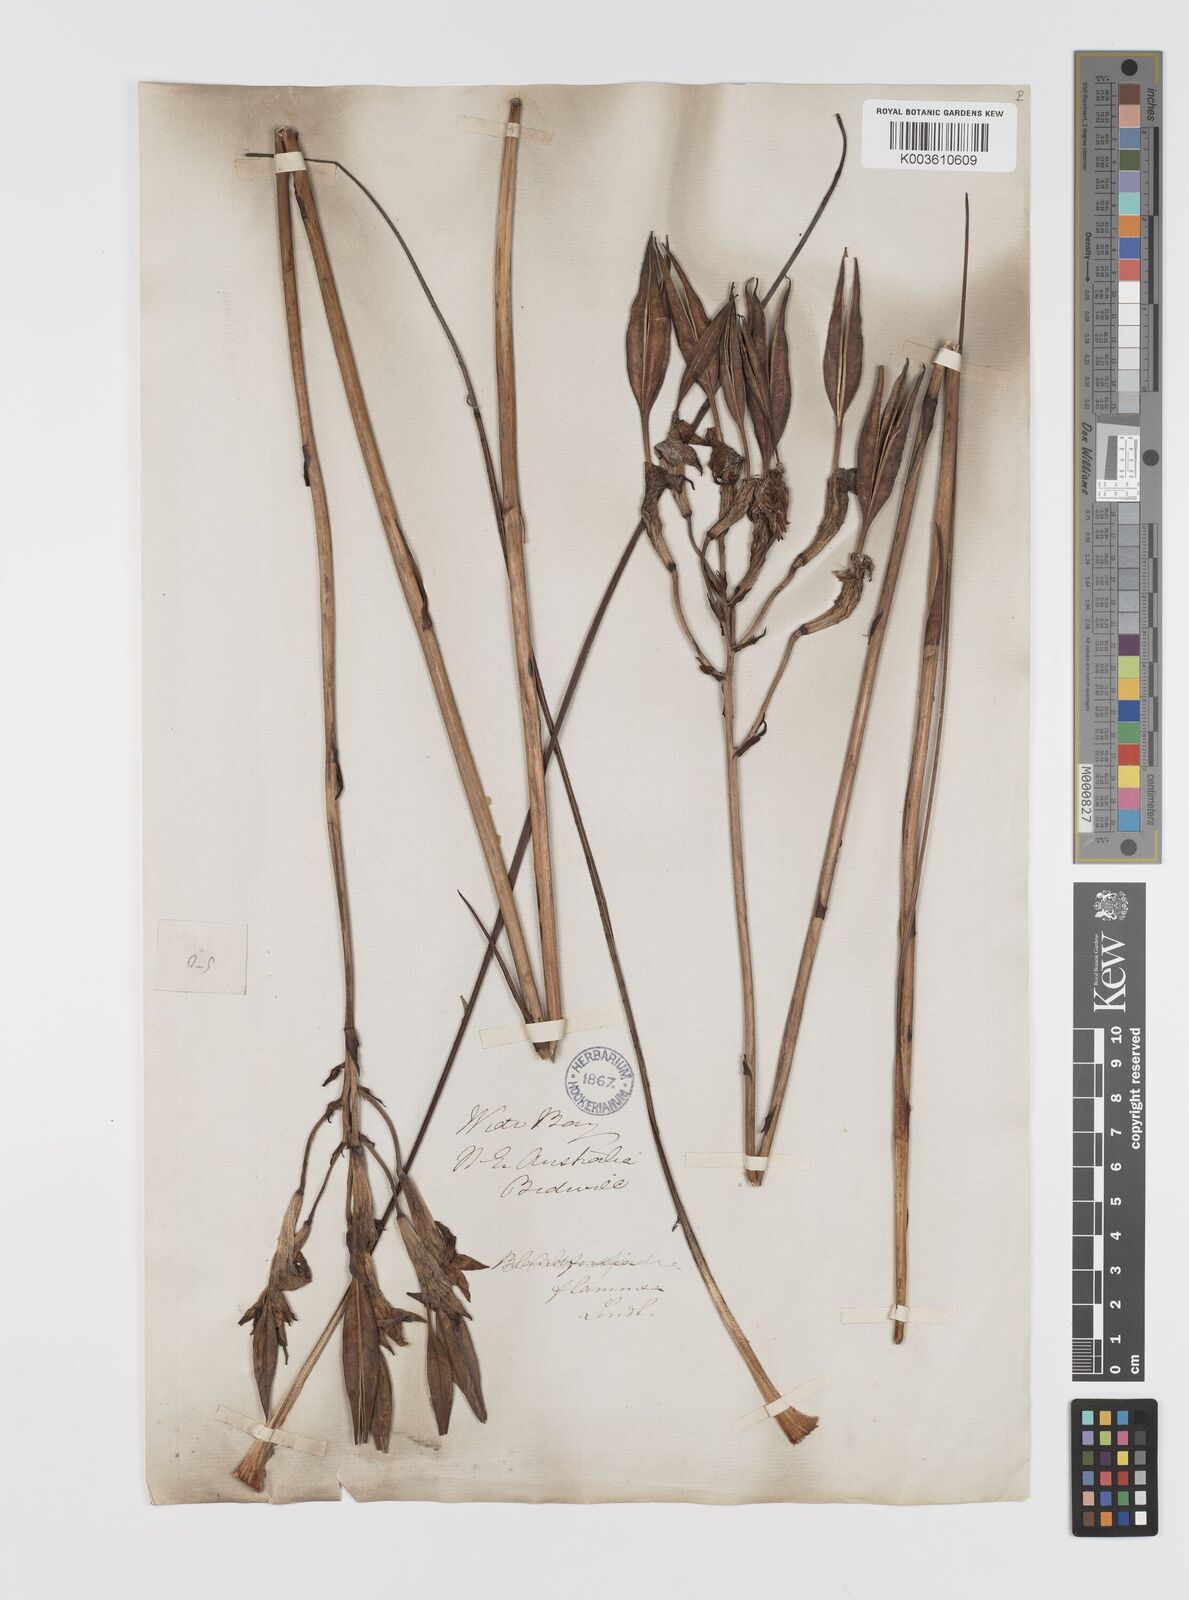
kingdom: Plantae
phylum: Tracheophyta
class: Liliopsida
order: Asparagales
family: Blandfordiaceae
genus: Blandfordia
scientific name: Blandfordia grandiflora
